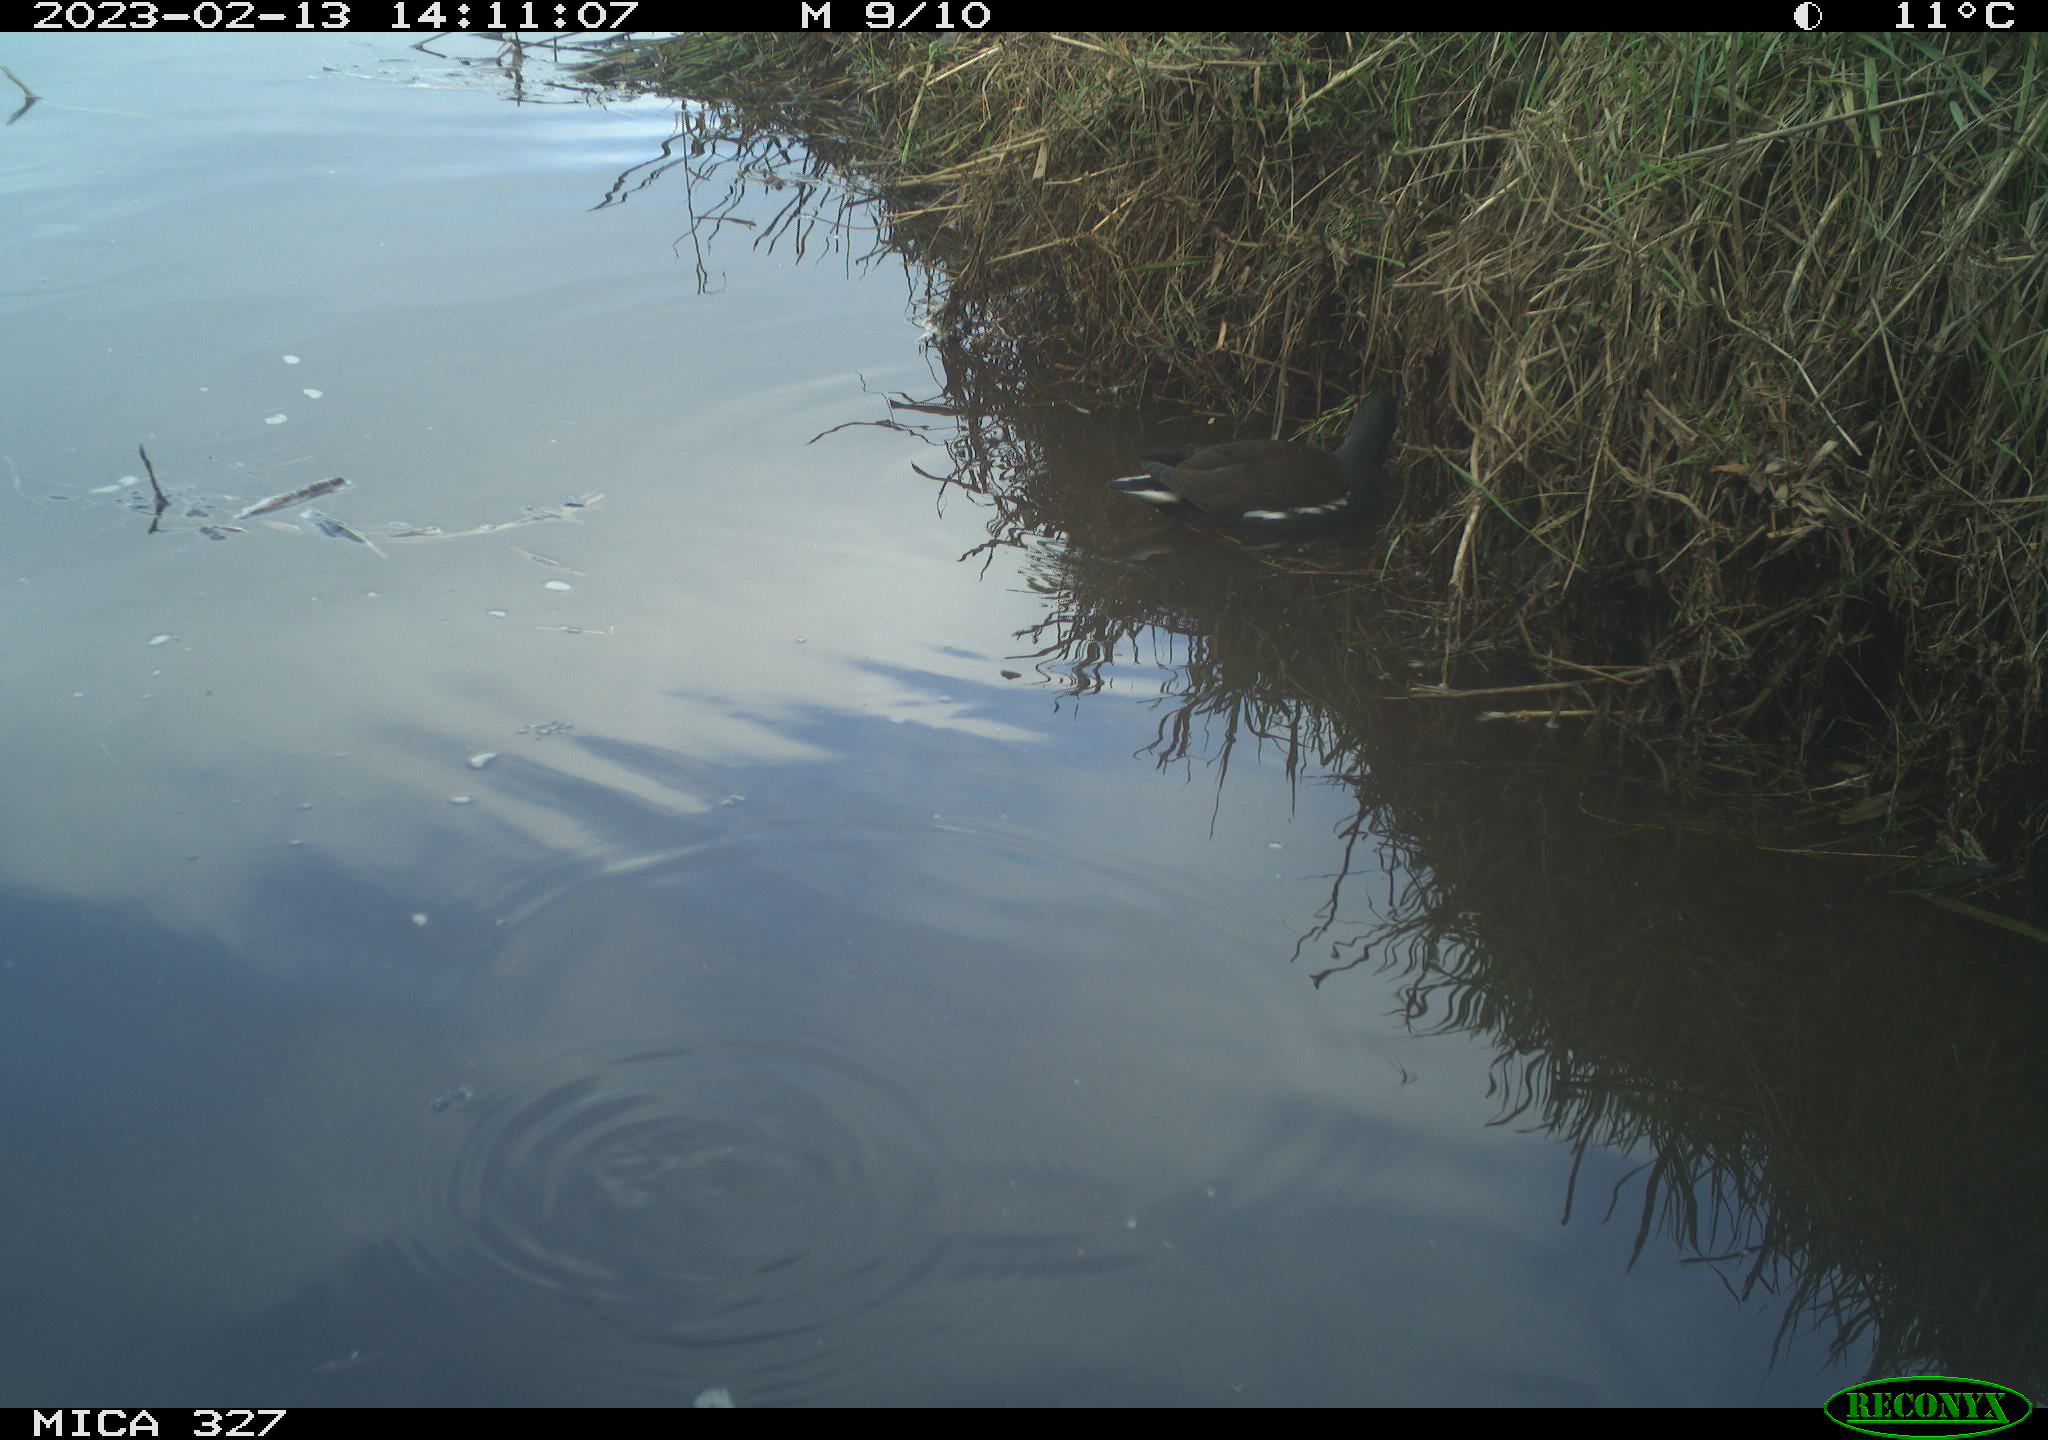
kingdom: Animalia
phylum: Chordata
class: Aves
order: Gruiformes
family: Rallidae
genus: Gallinula
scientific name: Gallinula chloropus
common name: Common moorhen
